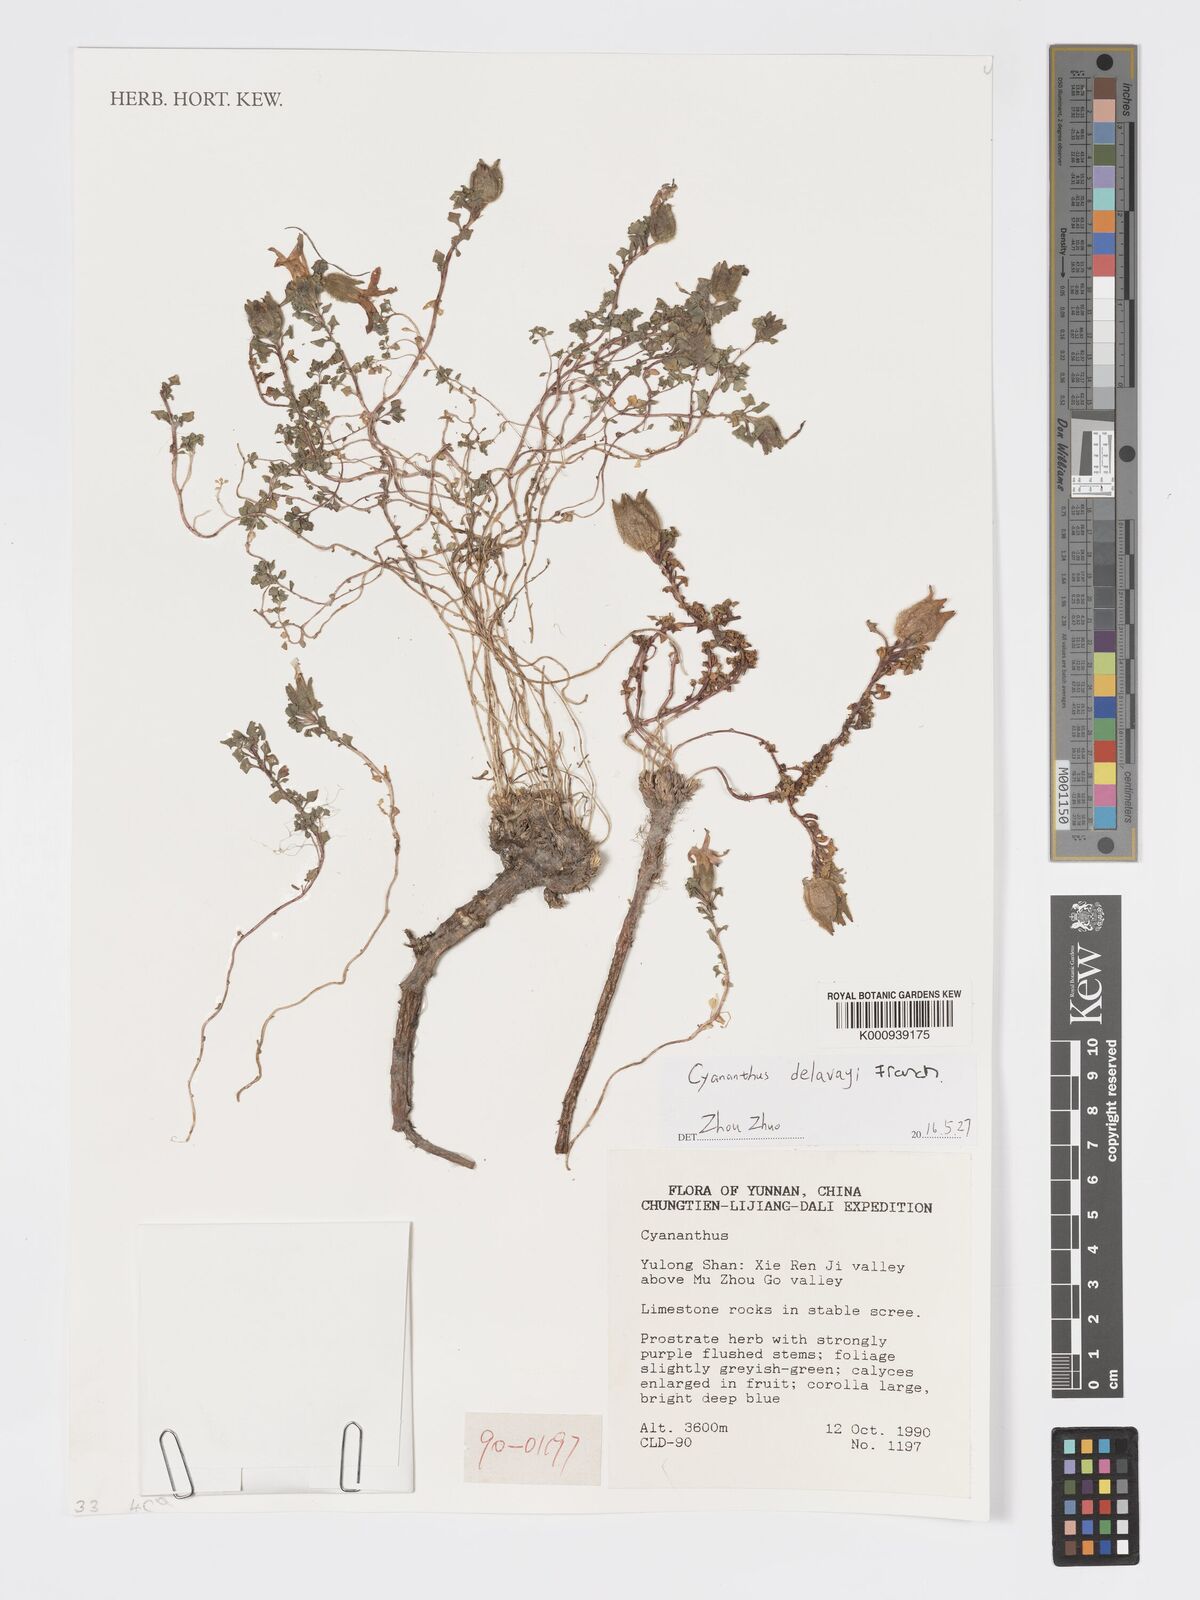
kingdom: Plantae
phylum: Tracheophyta
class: Magnoliopsida
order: Asterales
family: Campanulaceae
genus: Cyananthus
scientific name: Cyananthus delavayi
